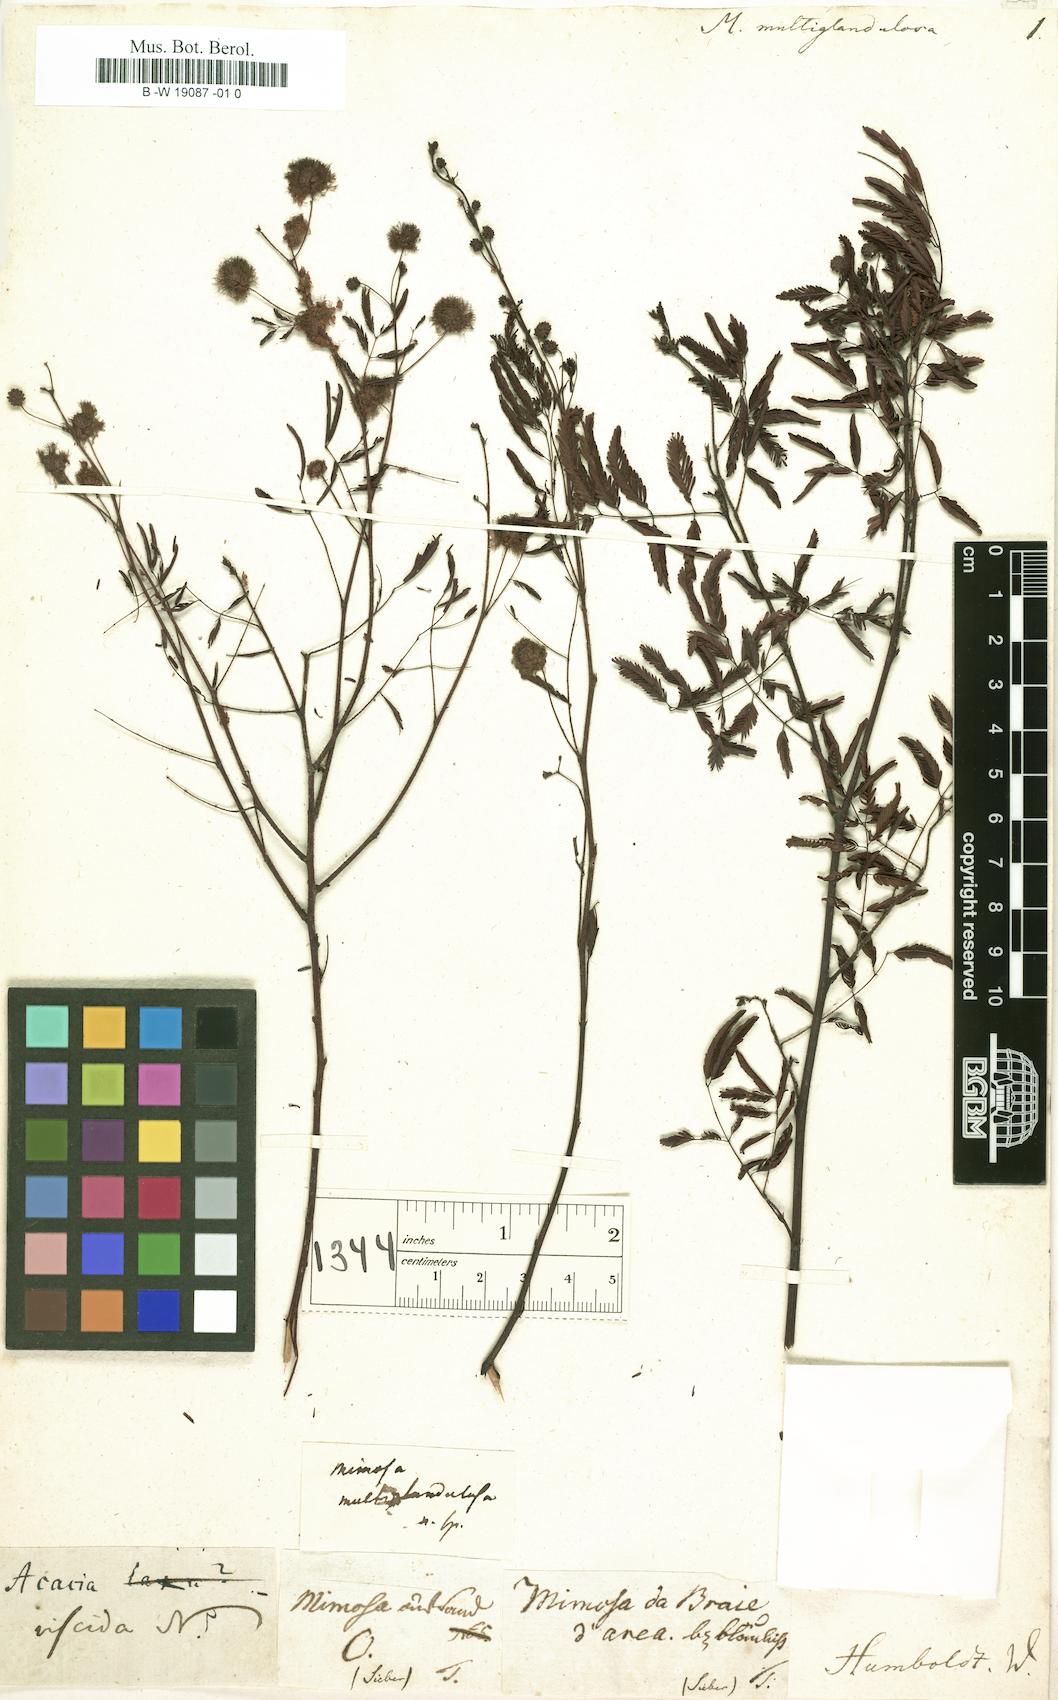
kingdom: Plantae
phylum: Tracheophyta
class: Magnoliopsida
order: Fabales
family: Fabaceae
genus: Mimosa
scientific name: Mimosa somnians
